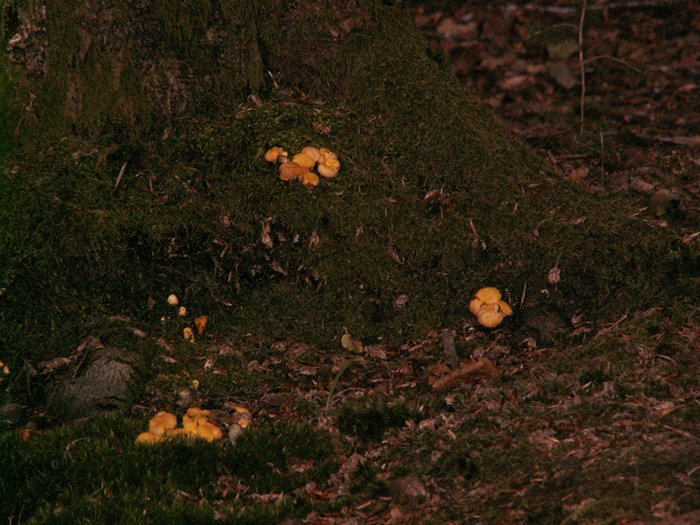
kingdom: Fungi
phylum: Basidiomycota
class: Agaricomycetes
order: Cantharellales
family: Hydnaceae
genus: Cantharellus
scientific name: Cantharellus cibarius
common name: almindelig kantarel
